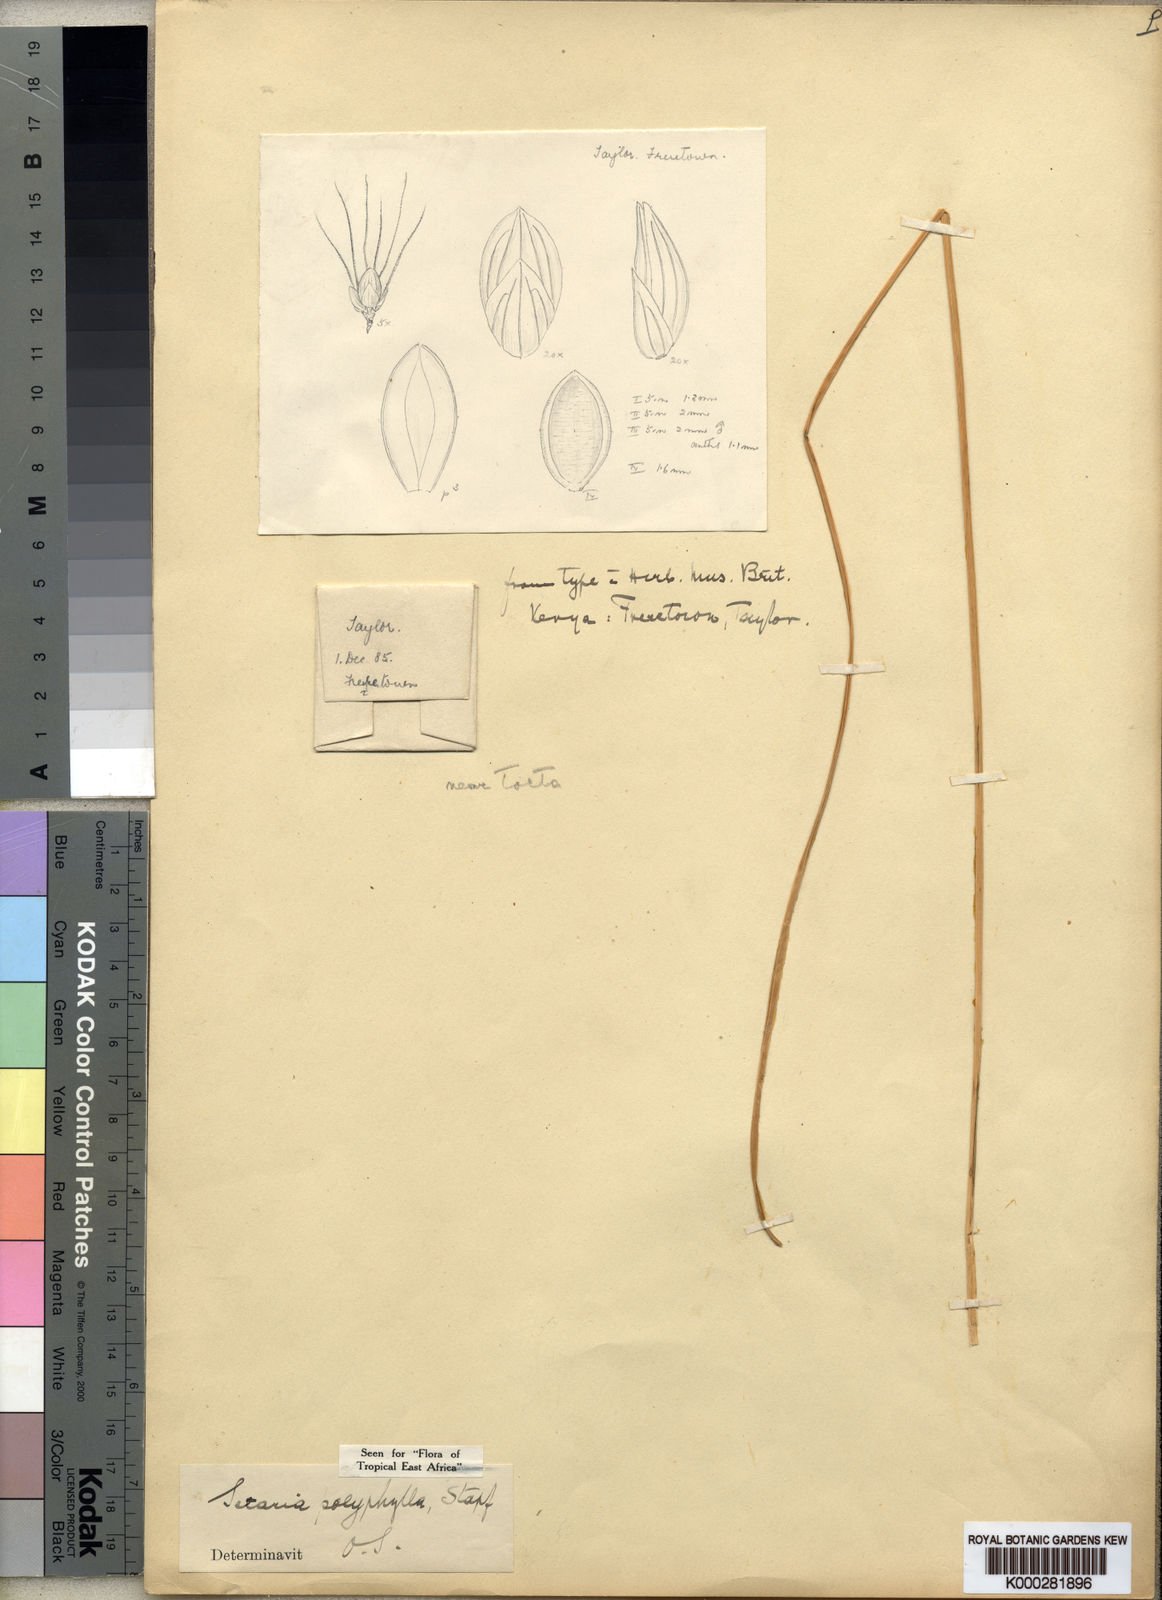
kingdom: Plantae
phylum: Tracheophyta
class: Liliopsida
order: Poales
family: Poaceae
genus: Setaria
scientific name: Setaria incrassata
